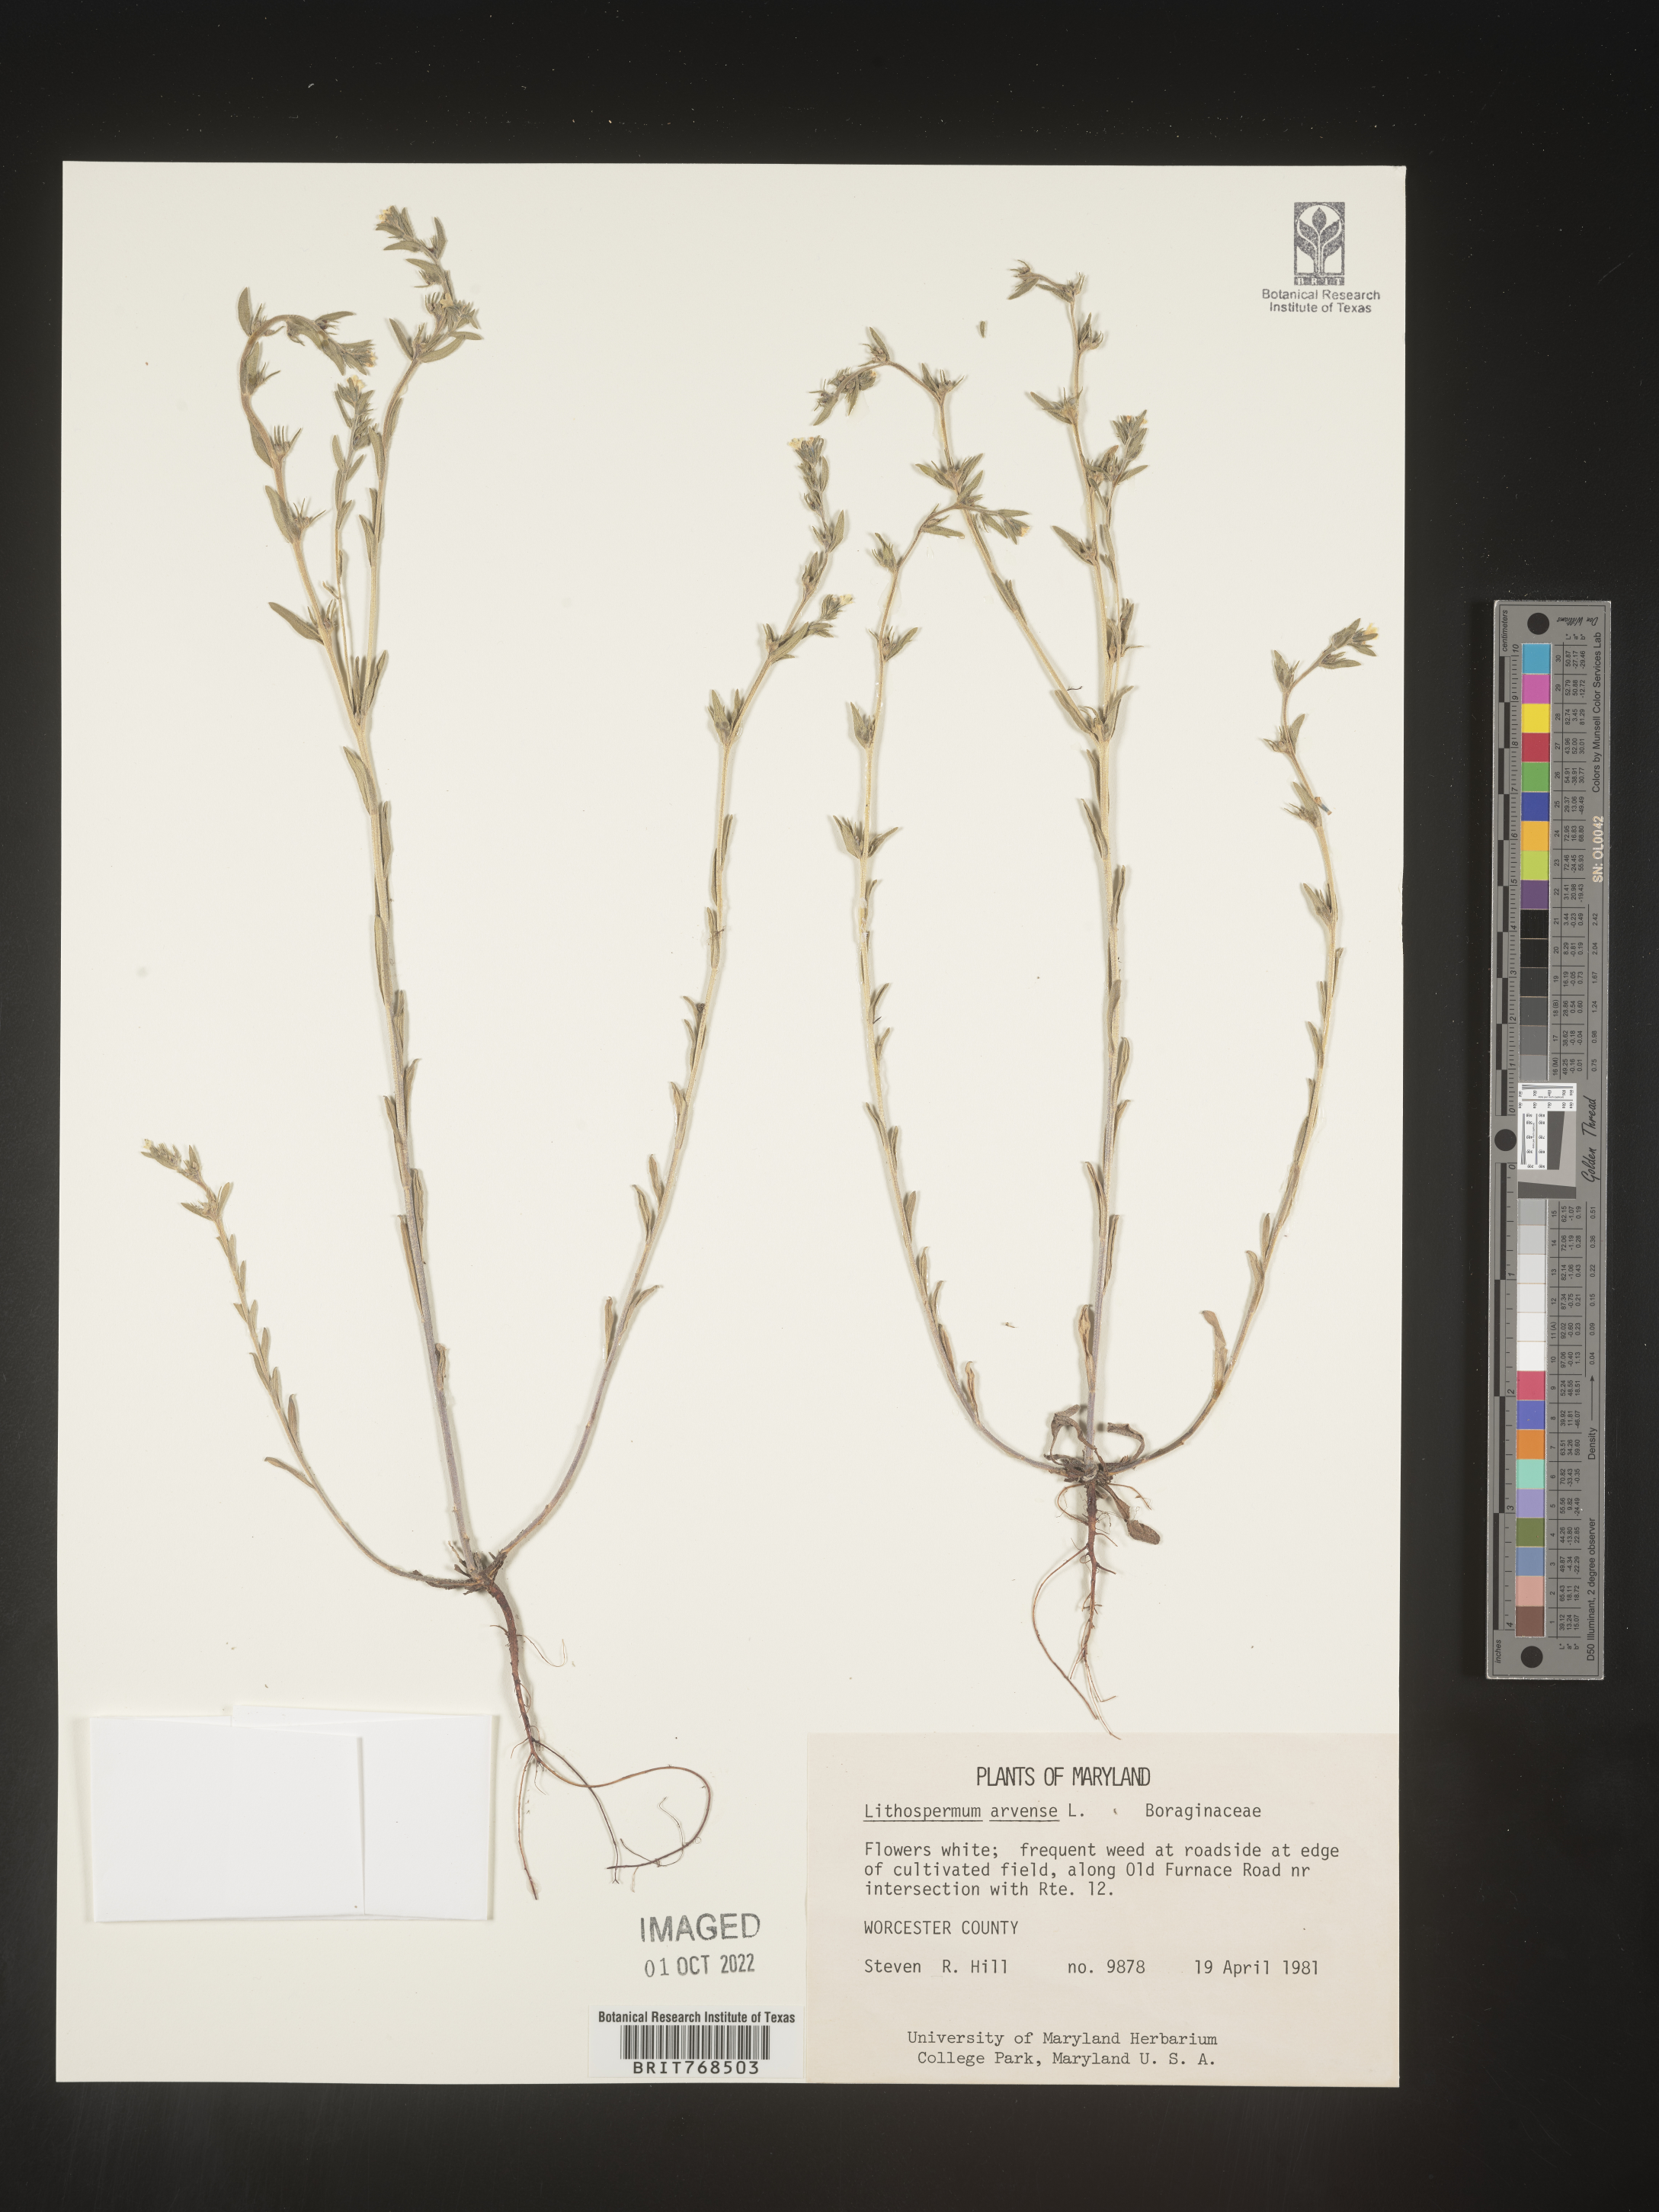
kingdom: Plantae
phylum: Tracheophyta
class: Magnoliopsida
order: Boraginales
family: Boraginaceae
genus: Lithospermum
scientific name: Lithospermum
